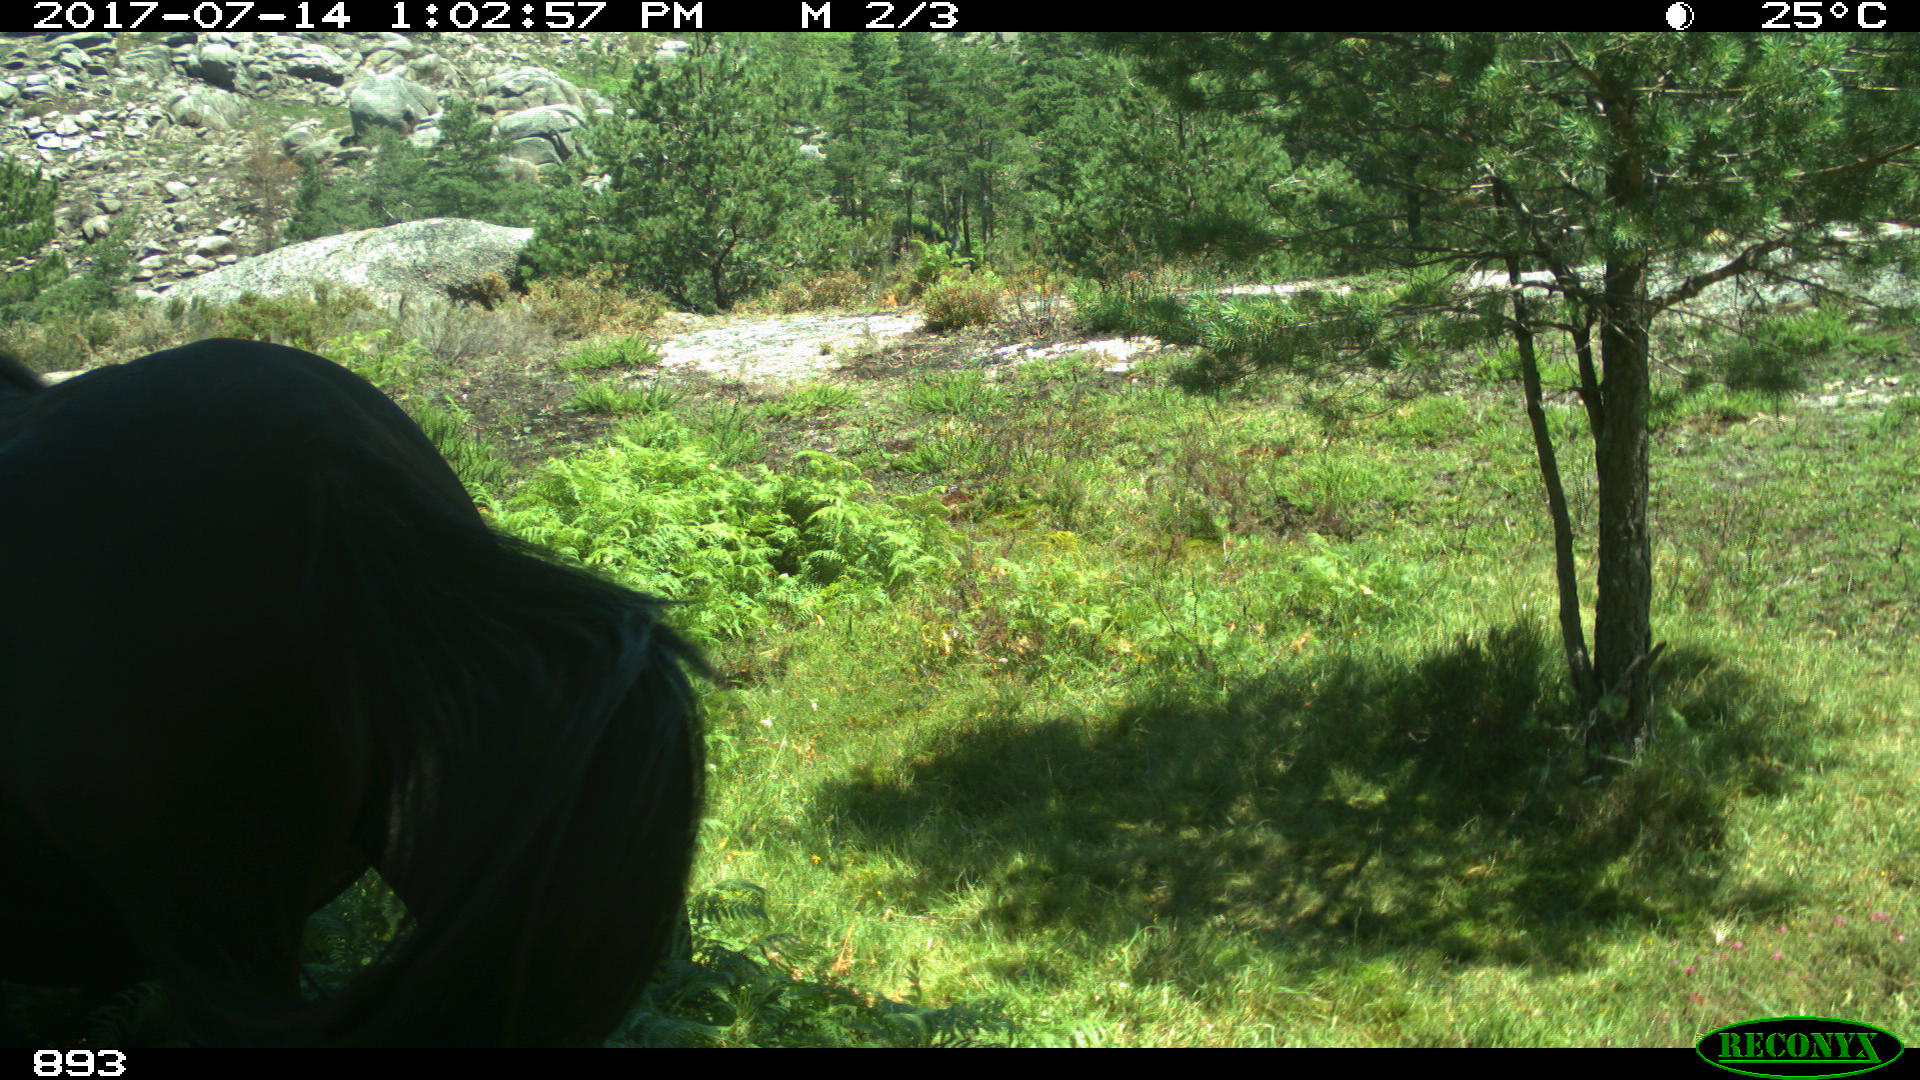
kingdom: Animalia
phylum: Chordata
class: Mammalia
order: Perissodactyla
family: Equidae
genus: Equus
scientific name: Equus caballus
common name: Horse
